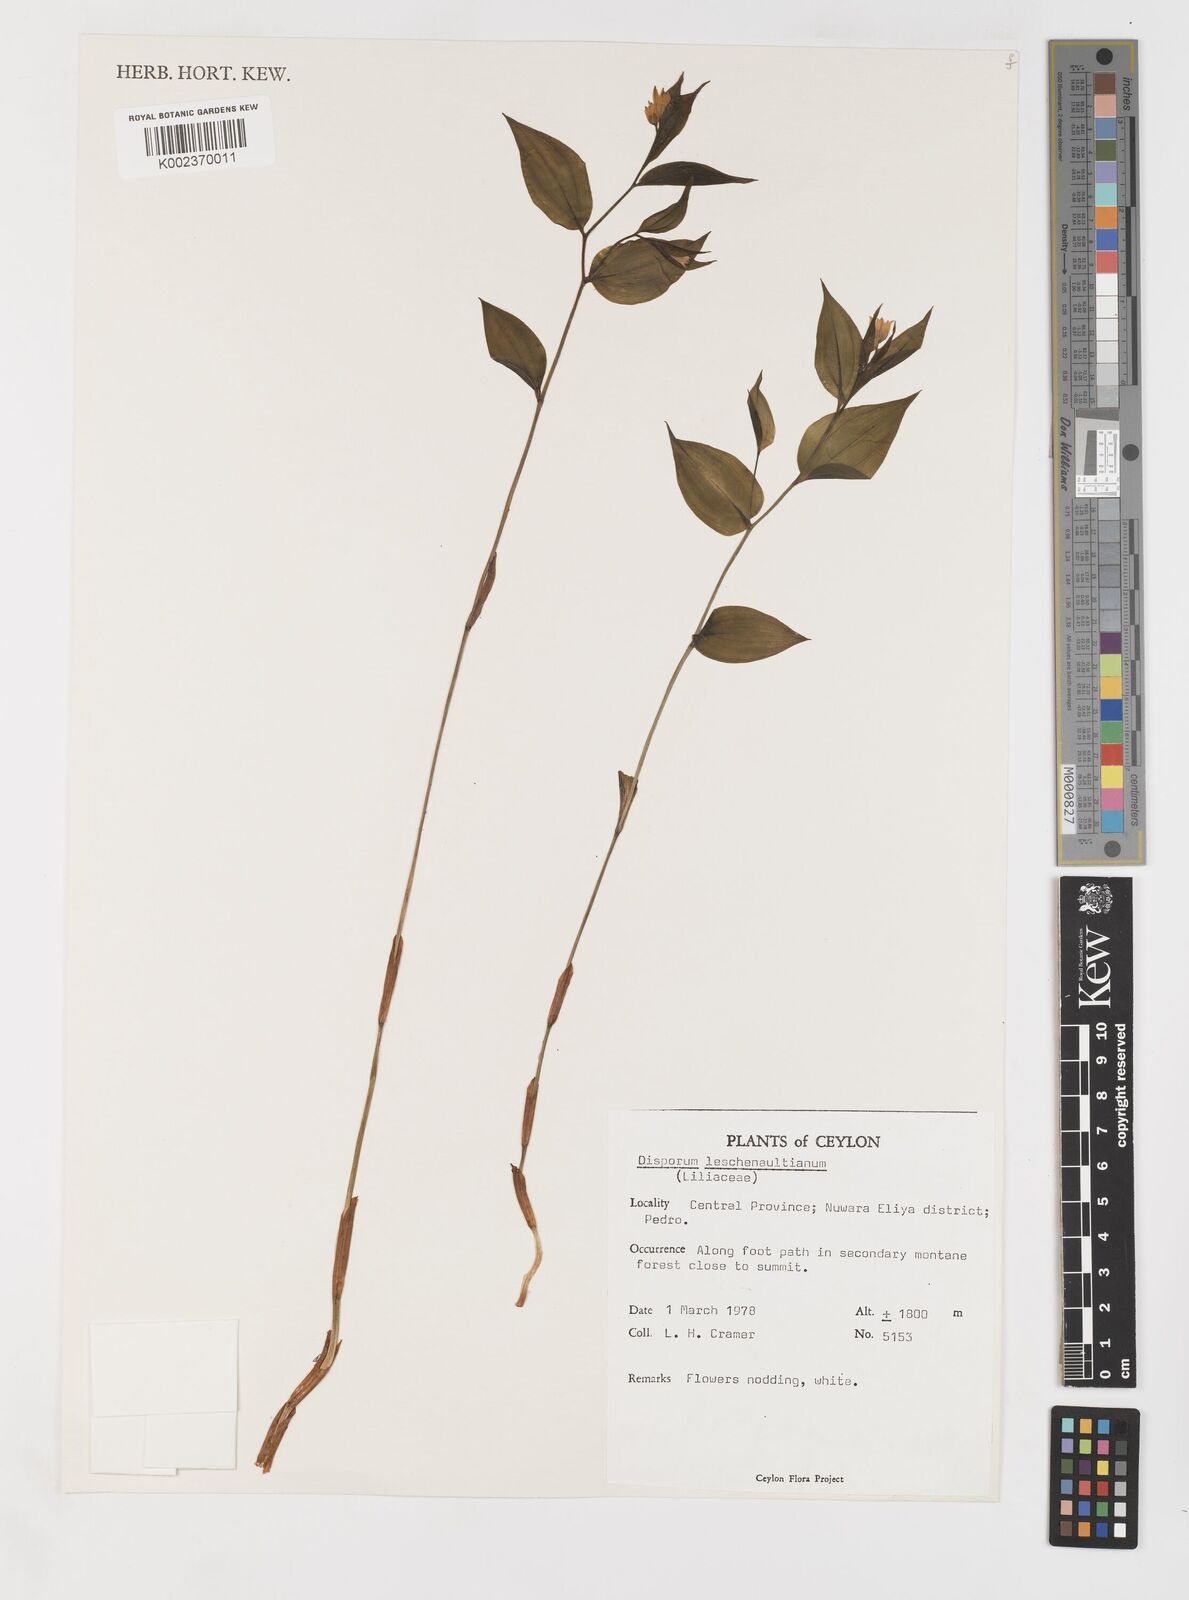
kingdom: Plantae
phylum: Tracheophyta
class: Liliopsida
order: Liliales
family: Colchicaceae
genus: Disporum
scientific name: Disporum cantoniense
